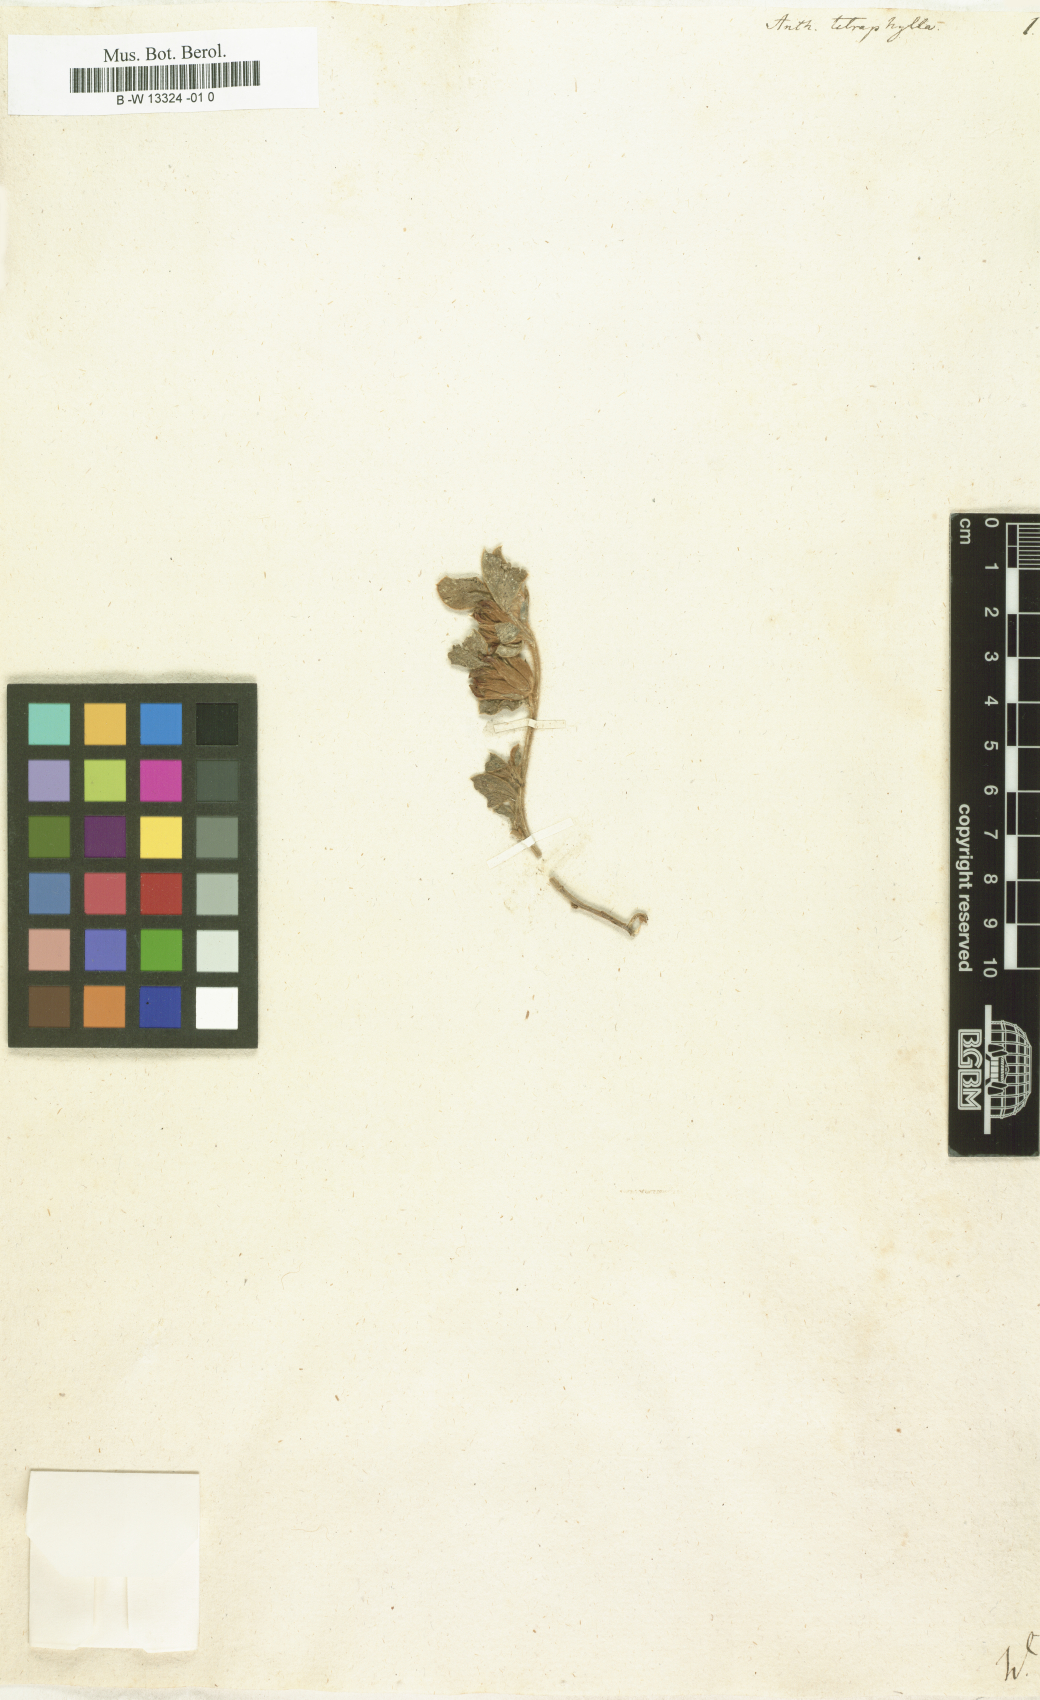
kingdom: Plantae
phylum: Tracheophyta
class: Magnoliopsida
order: Fabales
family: Fabaceae
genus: Tripodion
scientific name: Tripodion tetraphyllum
